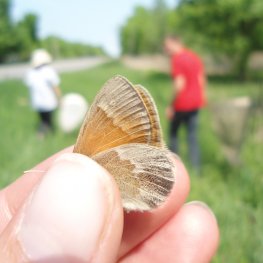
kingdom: Animalia
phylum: Arthropoda
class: Insecta
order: Lepidoptera
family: Nymphalidae
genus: Coenonympha
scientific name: Coenonympha tullia
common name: Large Heath
